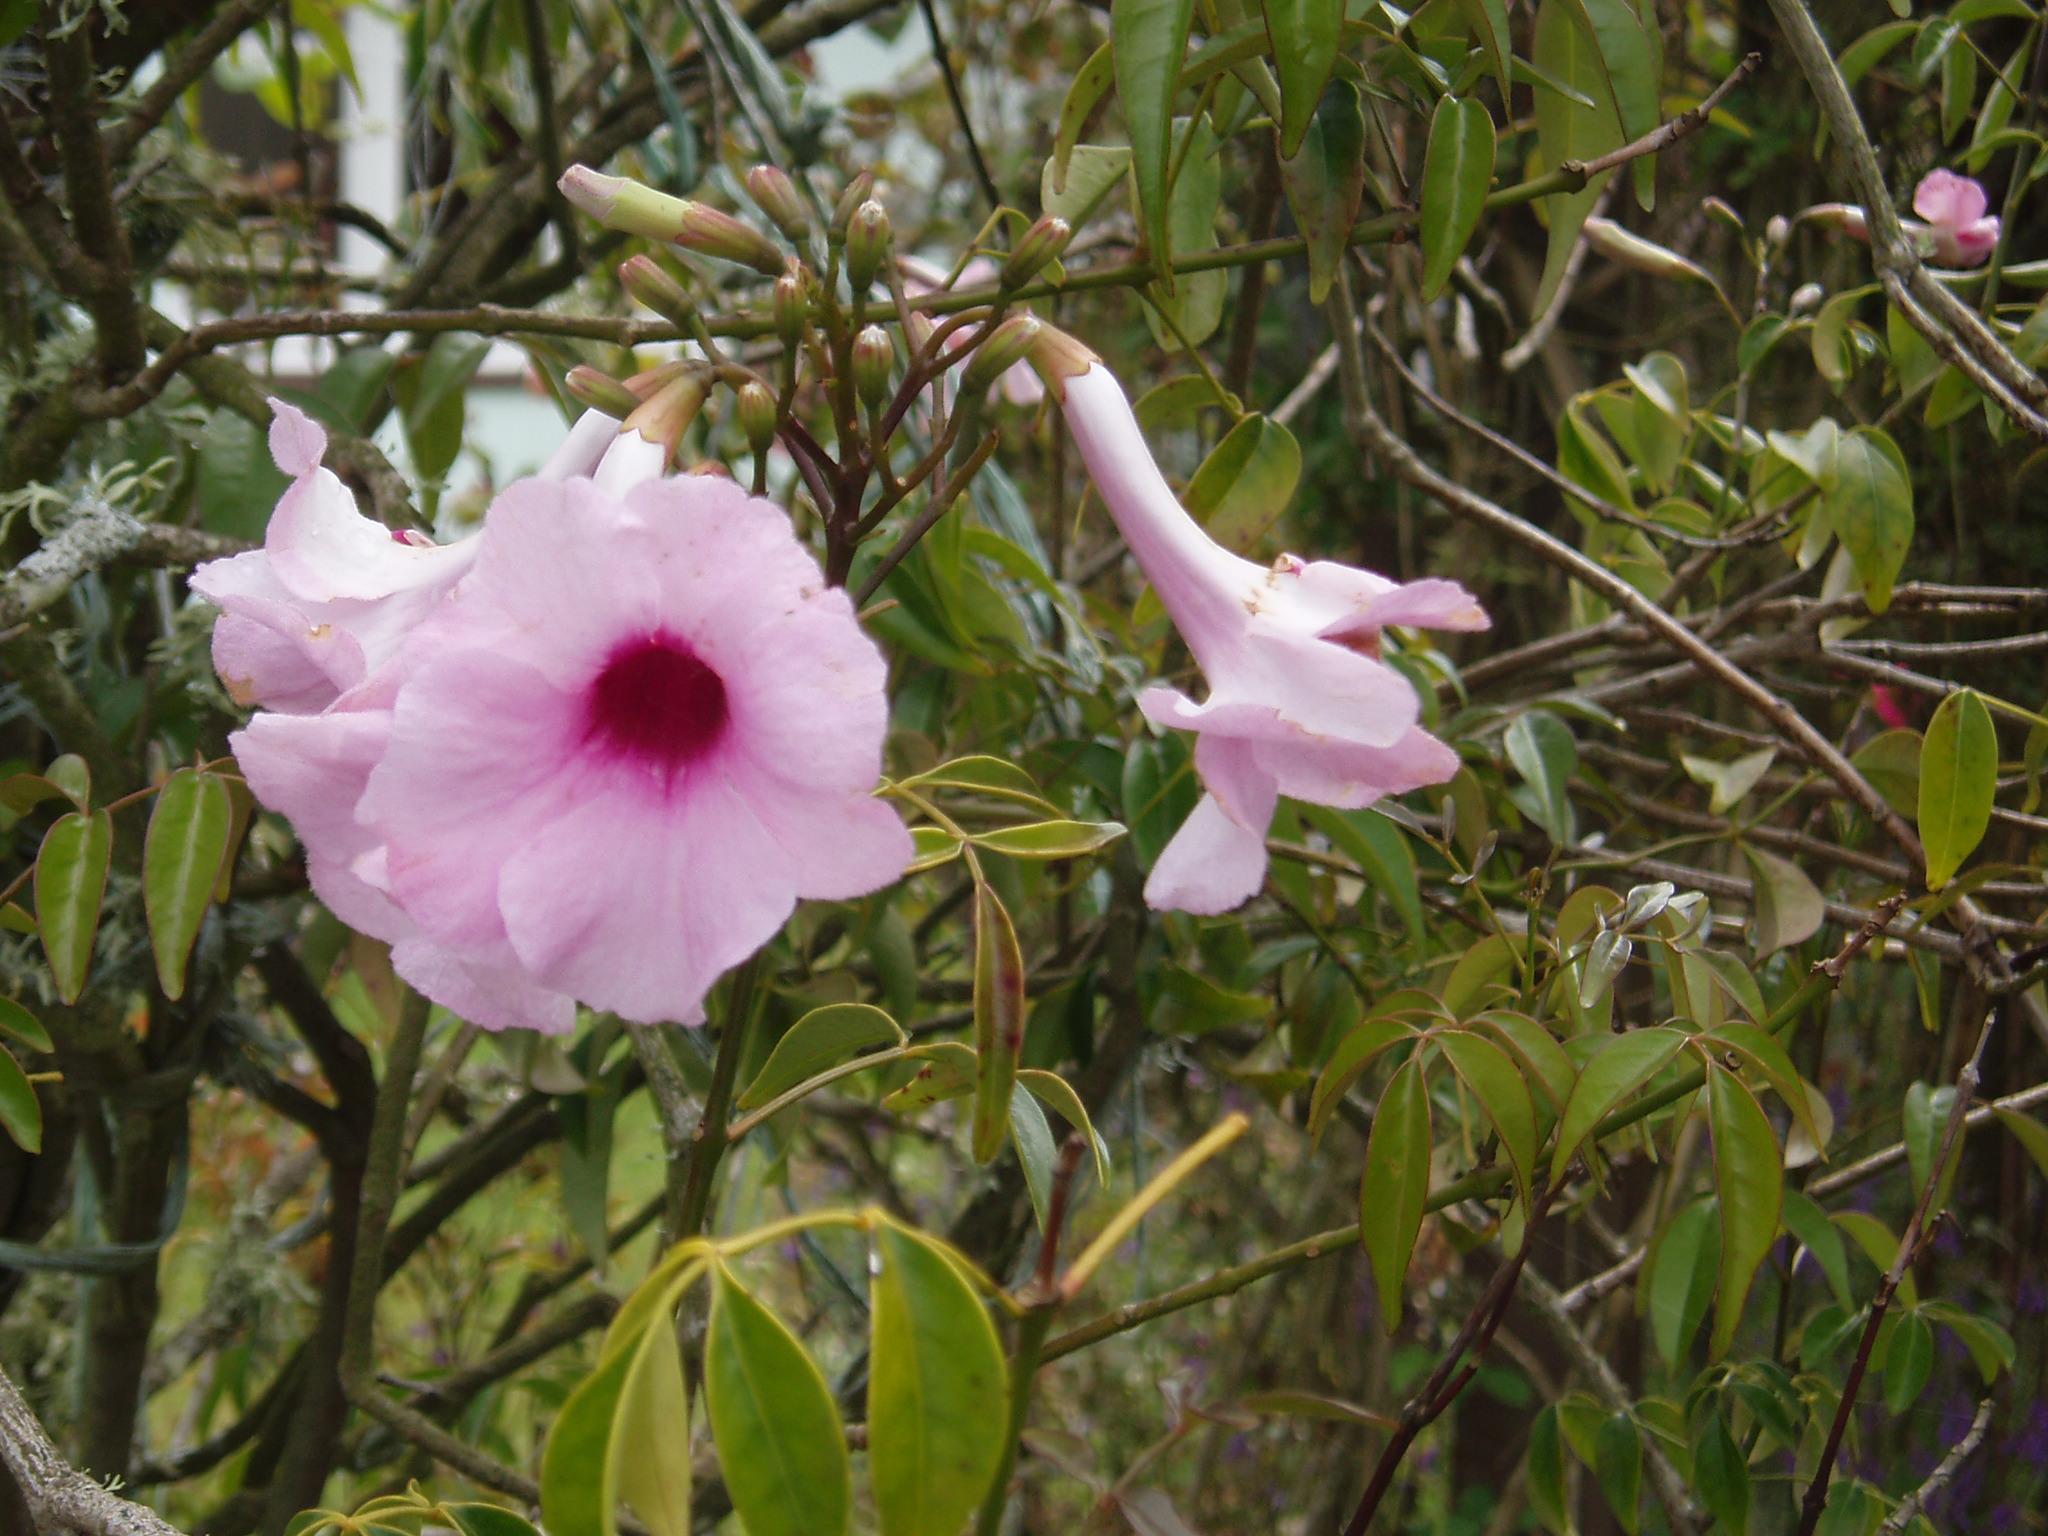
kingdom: Plantae
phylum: Tracheophyta
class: Magnoliopsida
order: Lamiales
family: Bignoniaceae
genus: Pandorea
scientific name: Pandorea jasminoides
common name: Bowerplant
